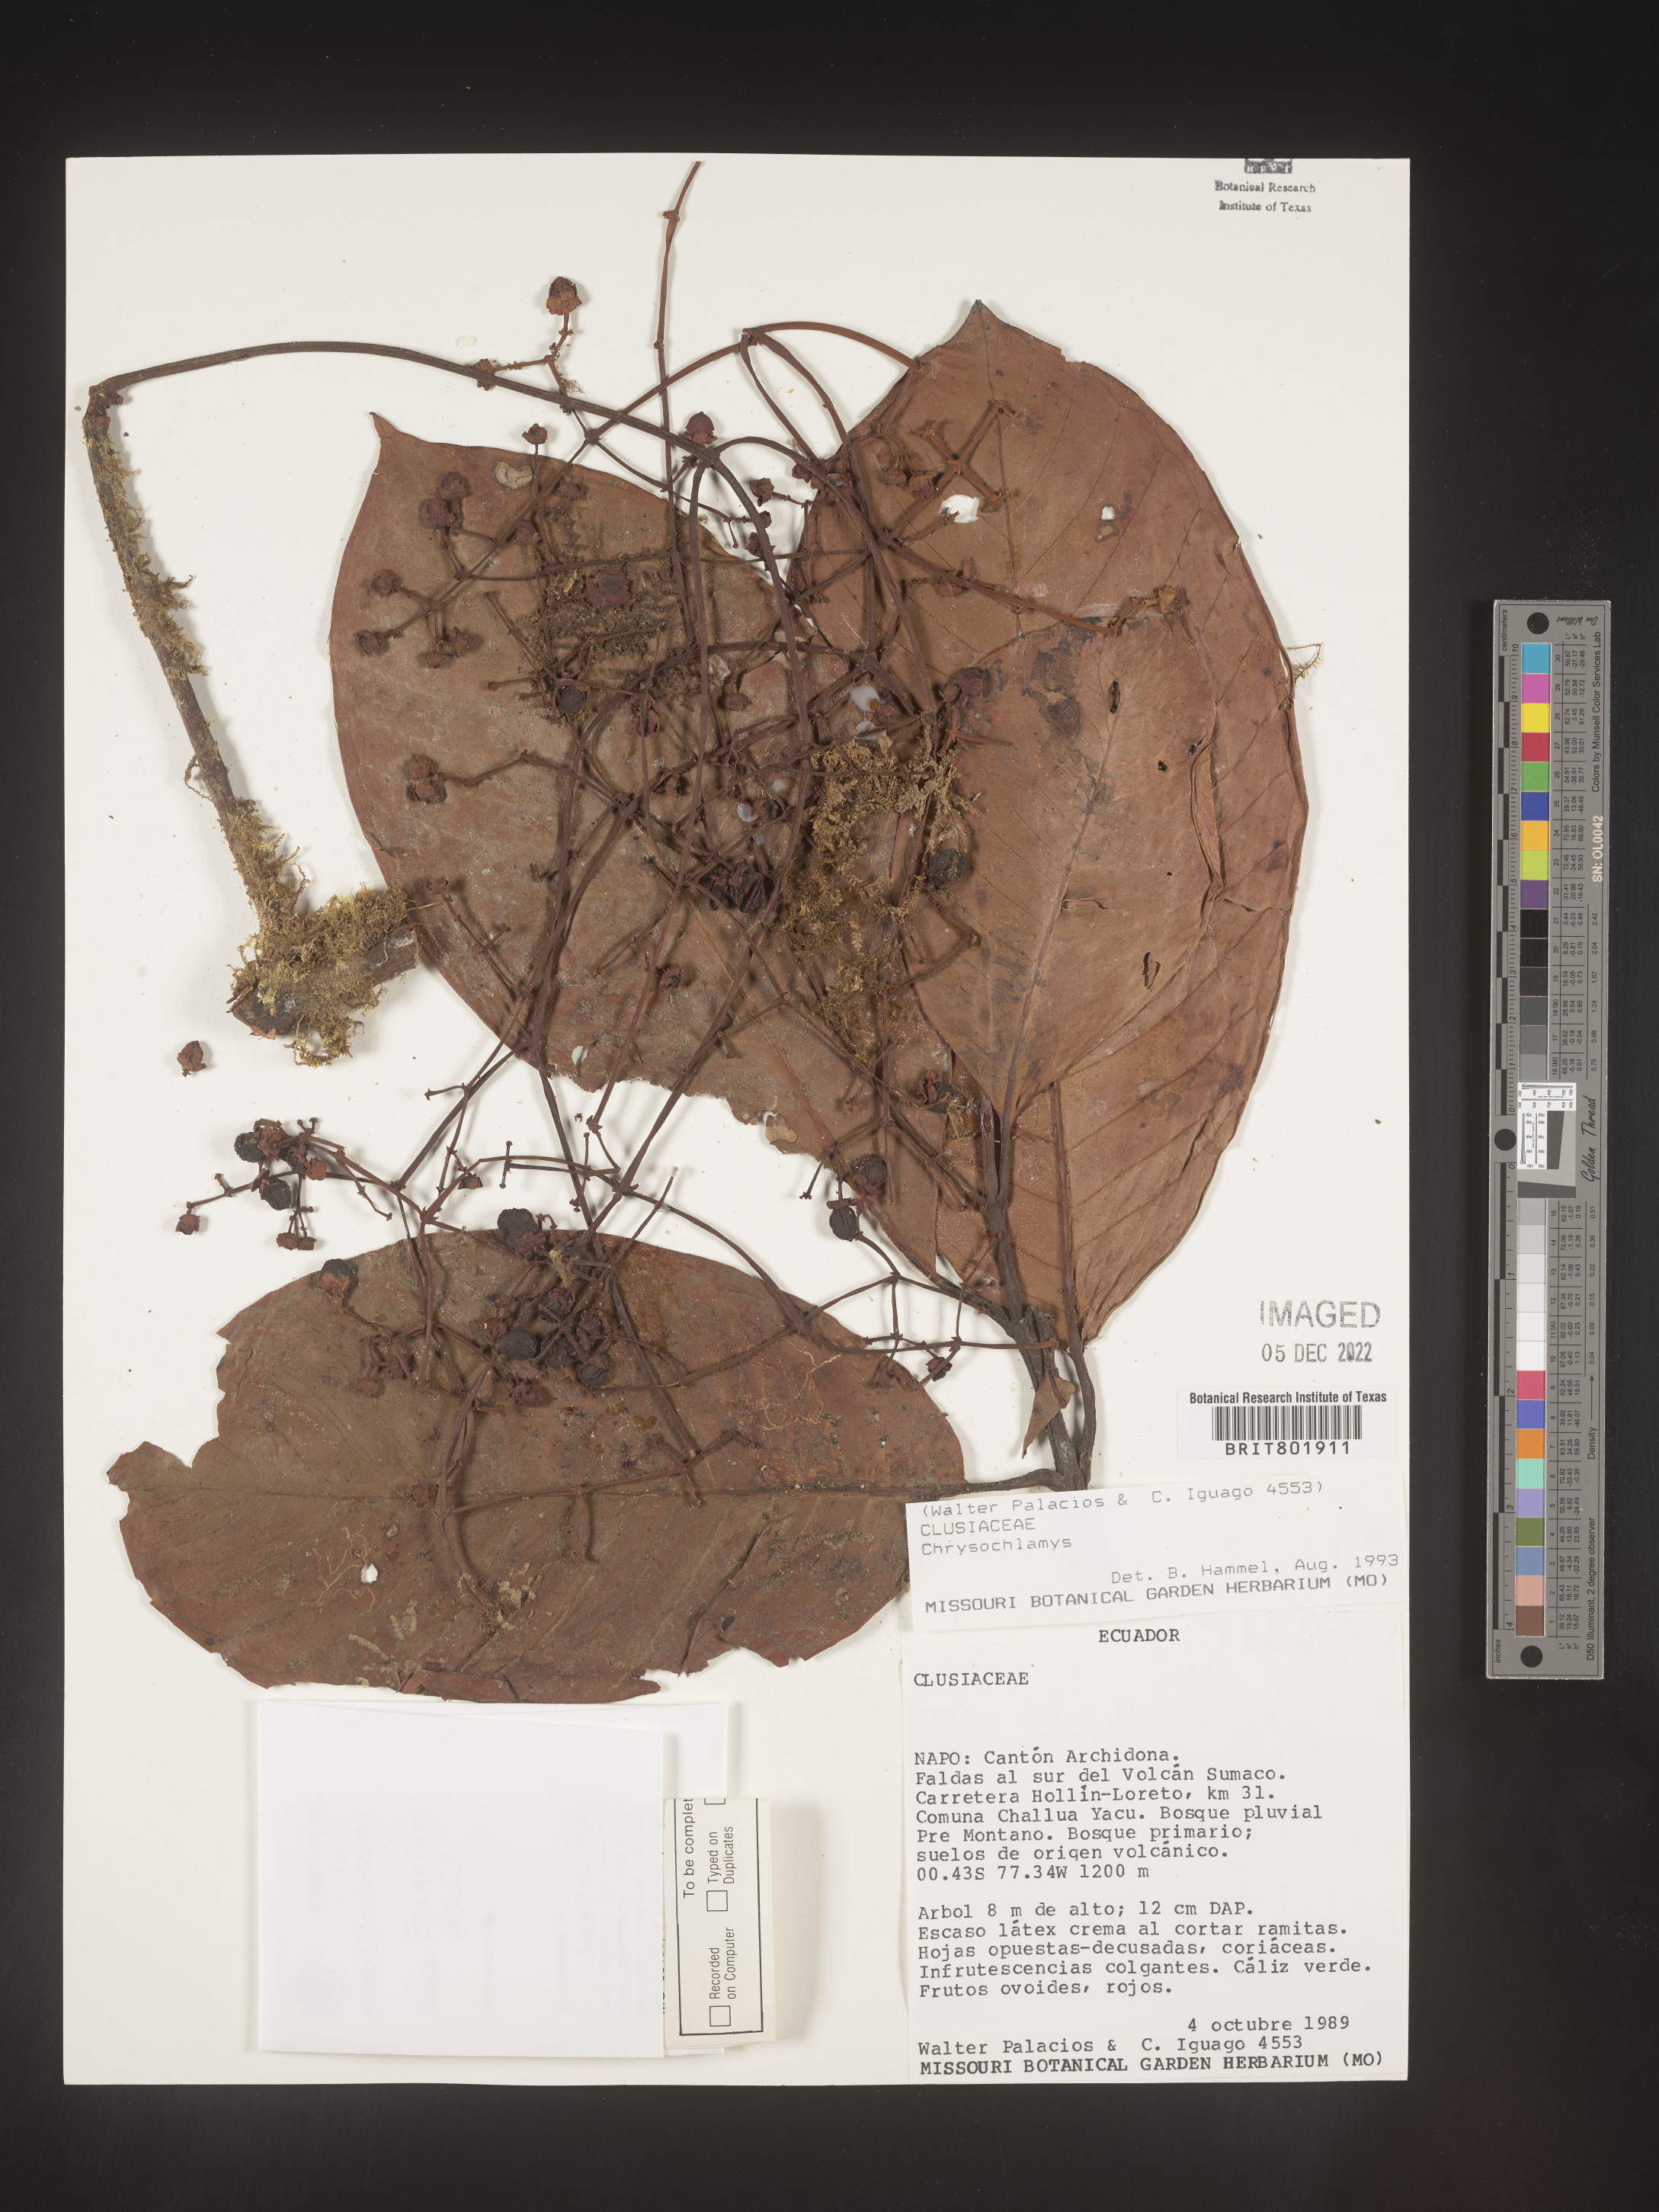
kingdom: Plantae
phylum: Tracheophyta
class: Magnoliopsida
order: Malpighiales
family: Clusiaceae
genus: Chrysochlamys
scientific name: Chrysochlamys
